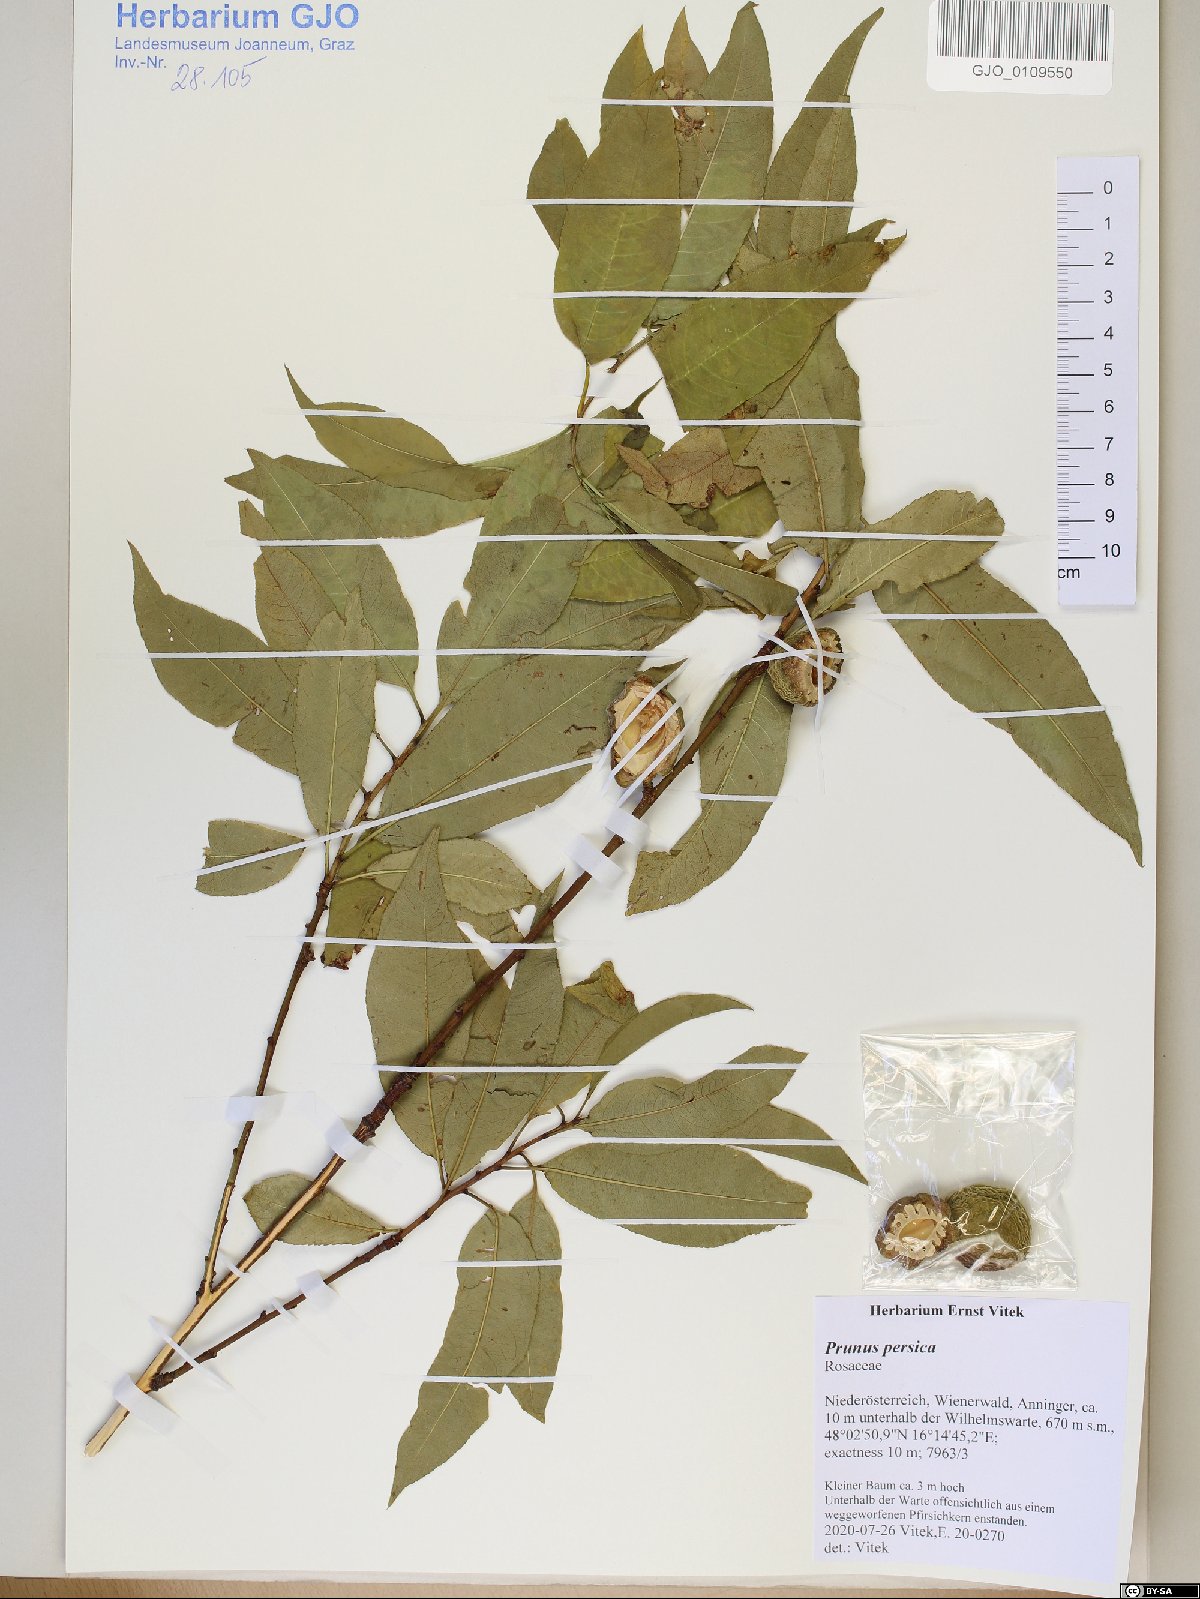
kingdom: Plantae
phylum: Tracheophyta
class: Magnoliopsida
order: Rosales
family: Rosaceae
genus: Prunus
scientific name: Prunus persica
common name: Peach
